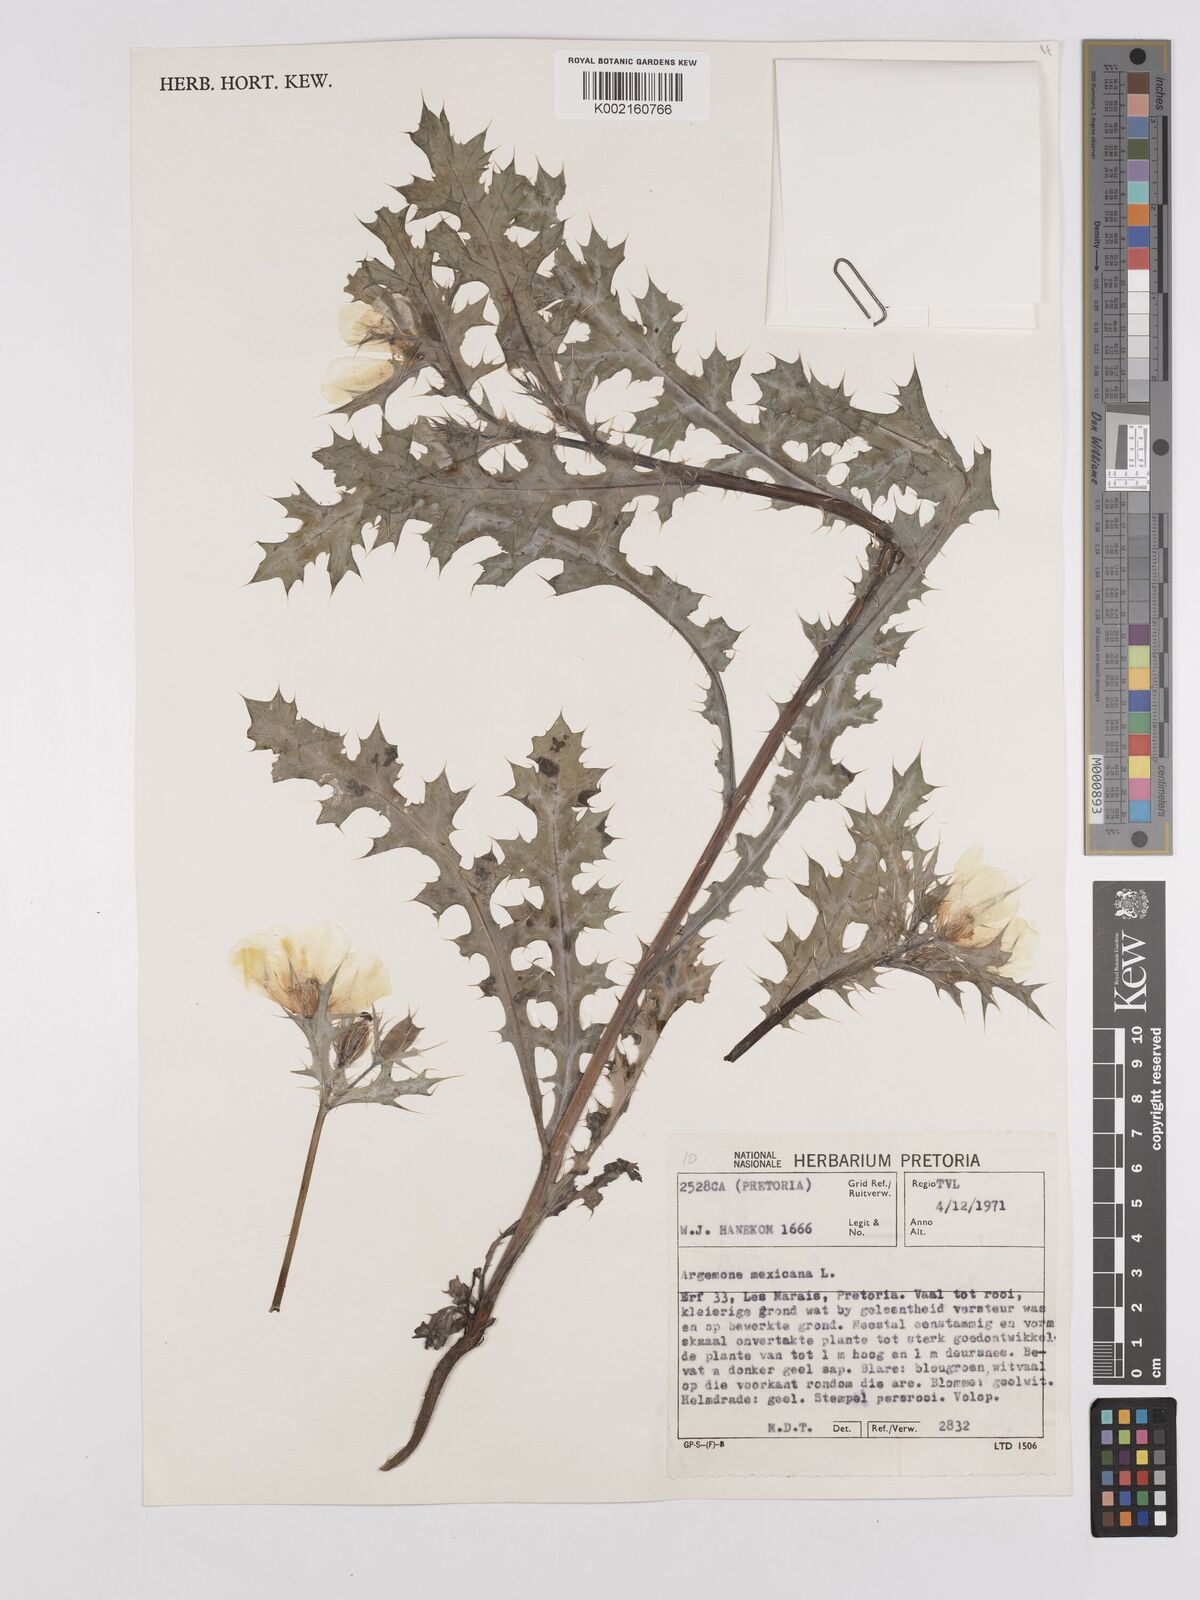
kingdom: Plantae
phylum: Tracheophyta
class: Magnoliopsida
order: Ranunculales
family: Papaveraceae
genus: Argemone
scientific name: Argemone mexicana
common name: Mexican poppy
